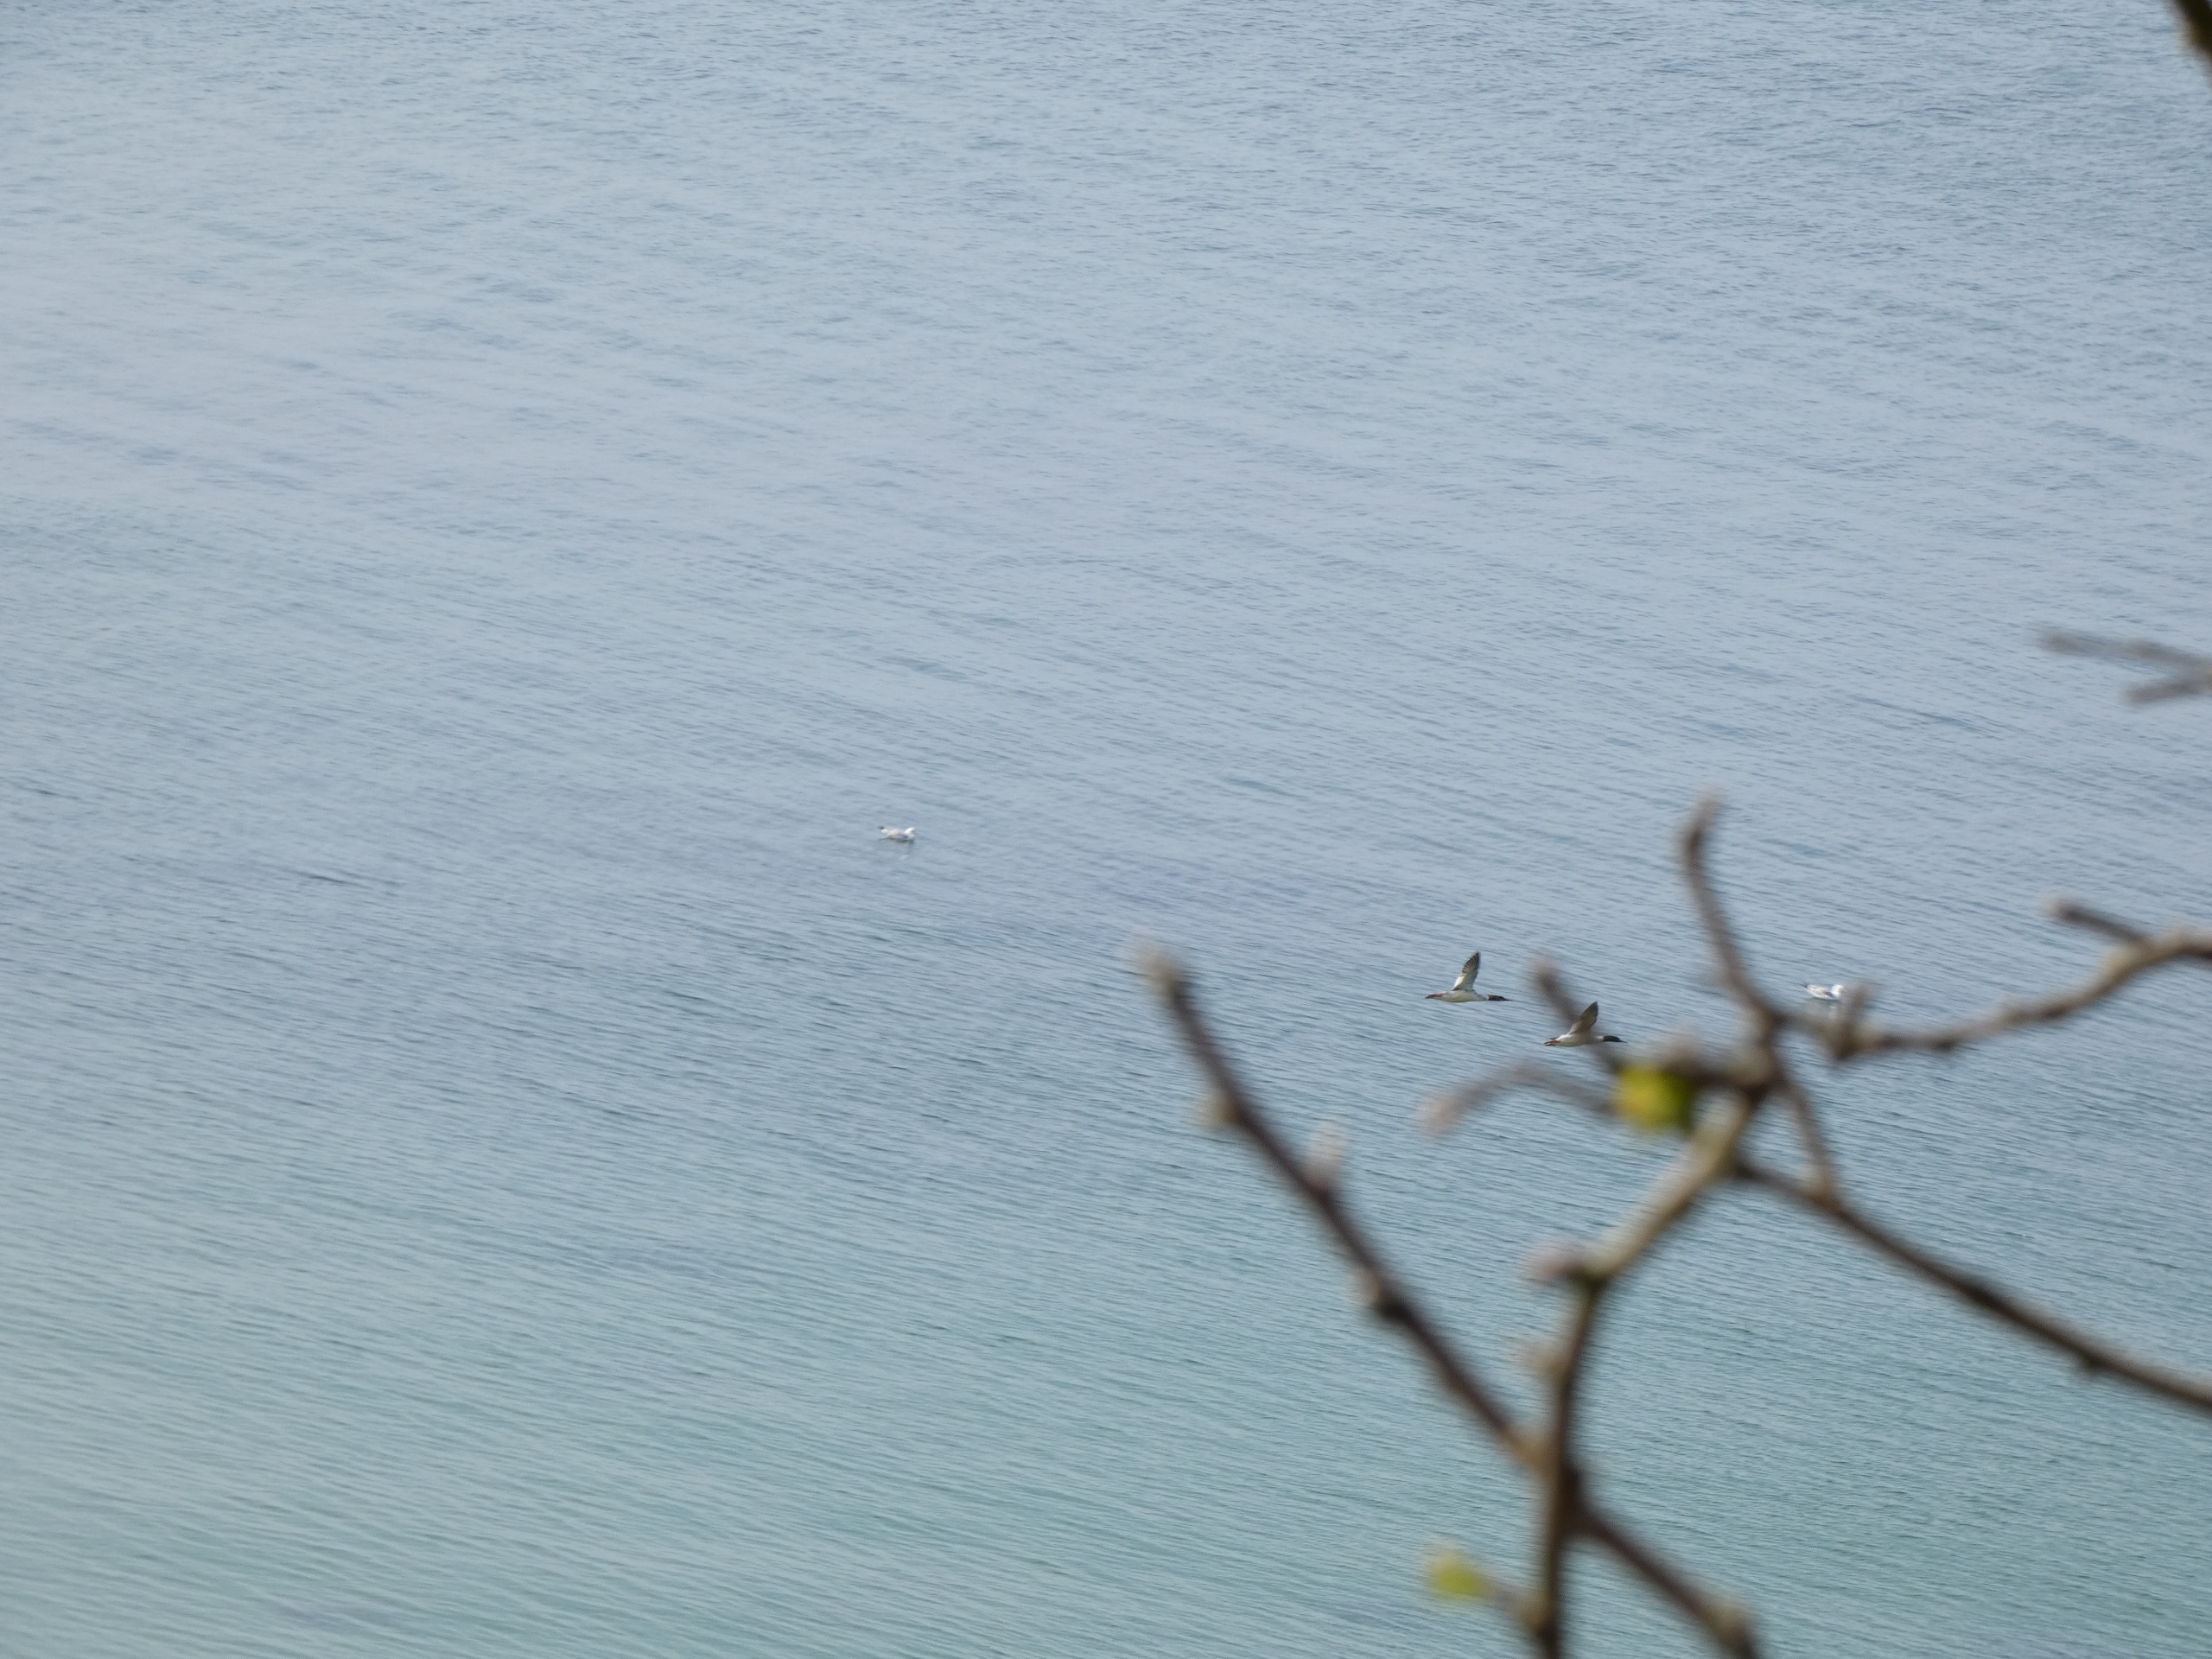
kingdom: Animalia
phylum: Chordata
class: Aves
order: Anseriformes
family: Anatidae
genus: Mergus
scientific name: Mergus merganser
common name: Stor skallesluger
